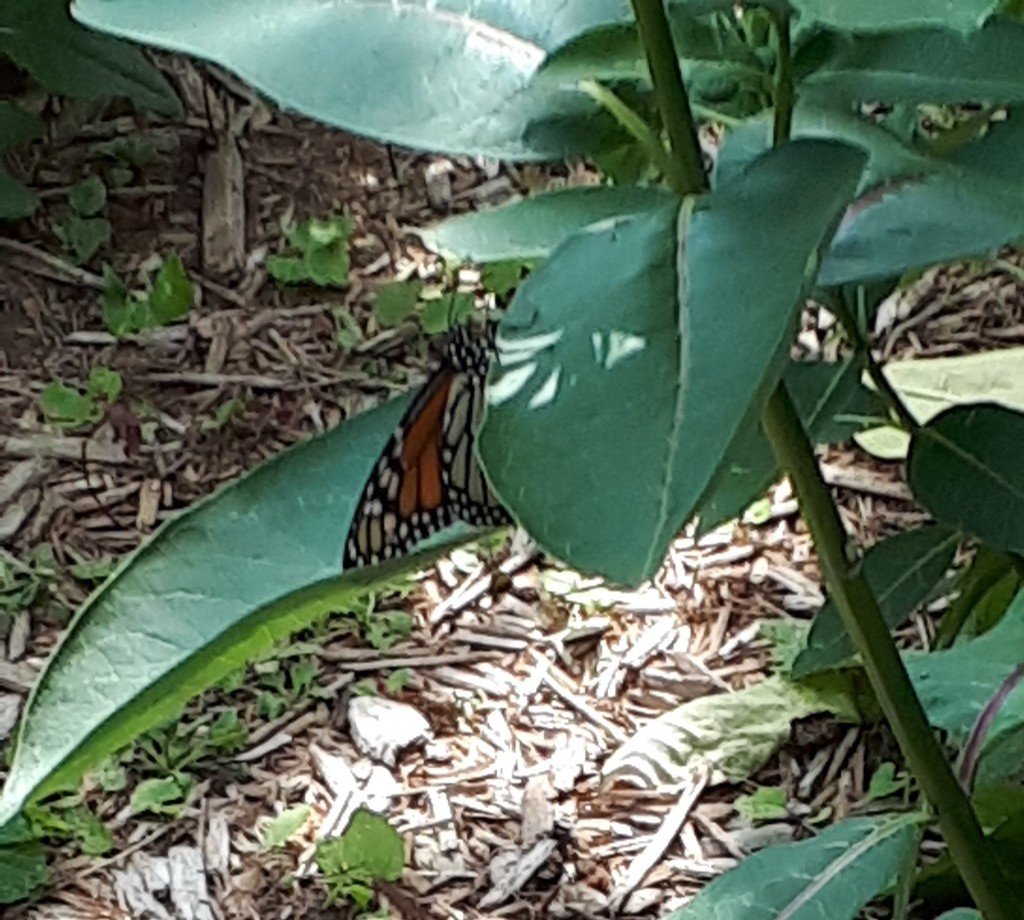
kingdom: Animalia
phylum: Arthropoda
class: Insecta
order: Lepidoptera
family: Nymphalidae
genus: Danaus
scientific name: Danaus plexippus
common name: Monarch
